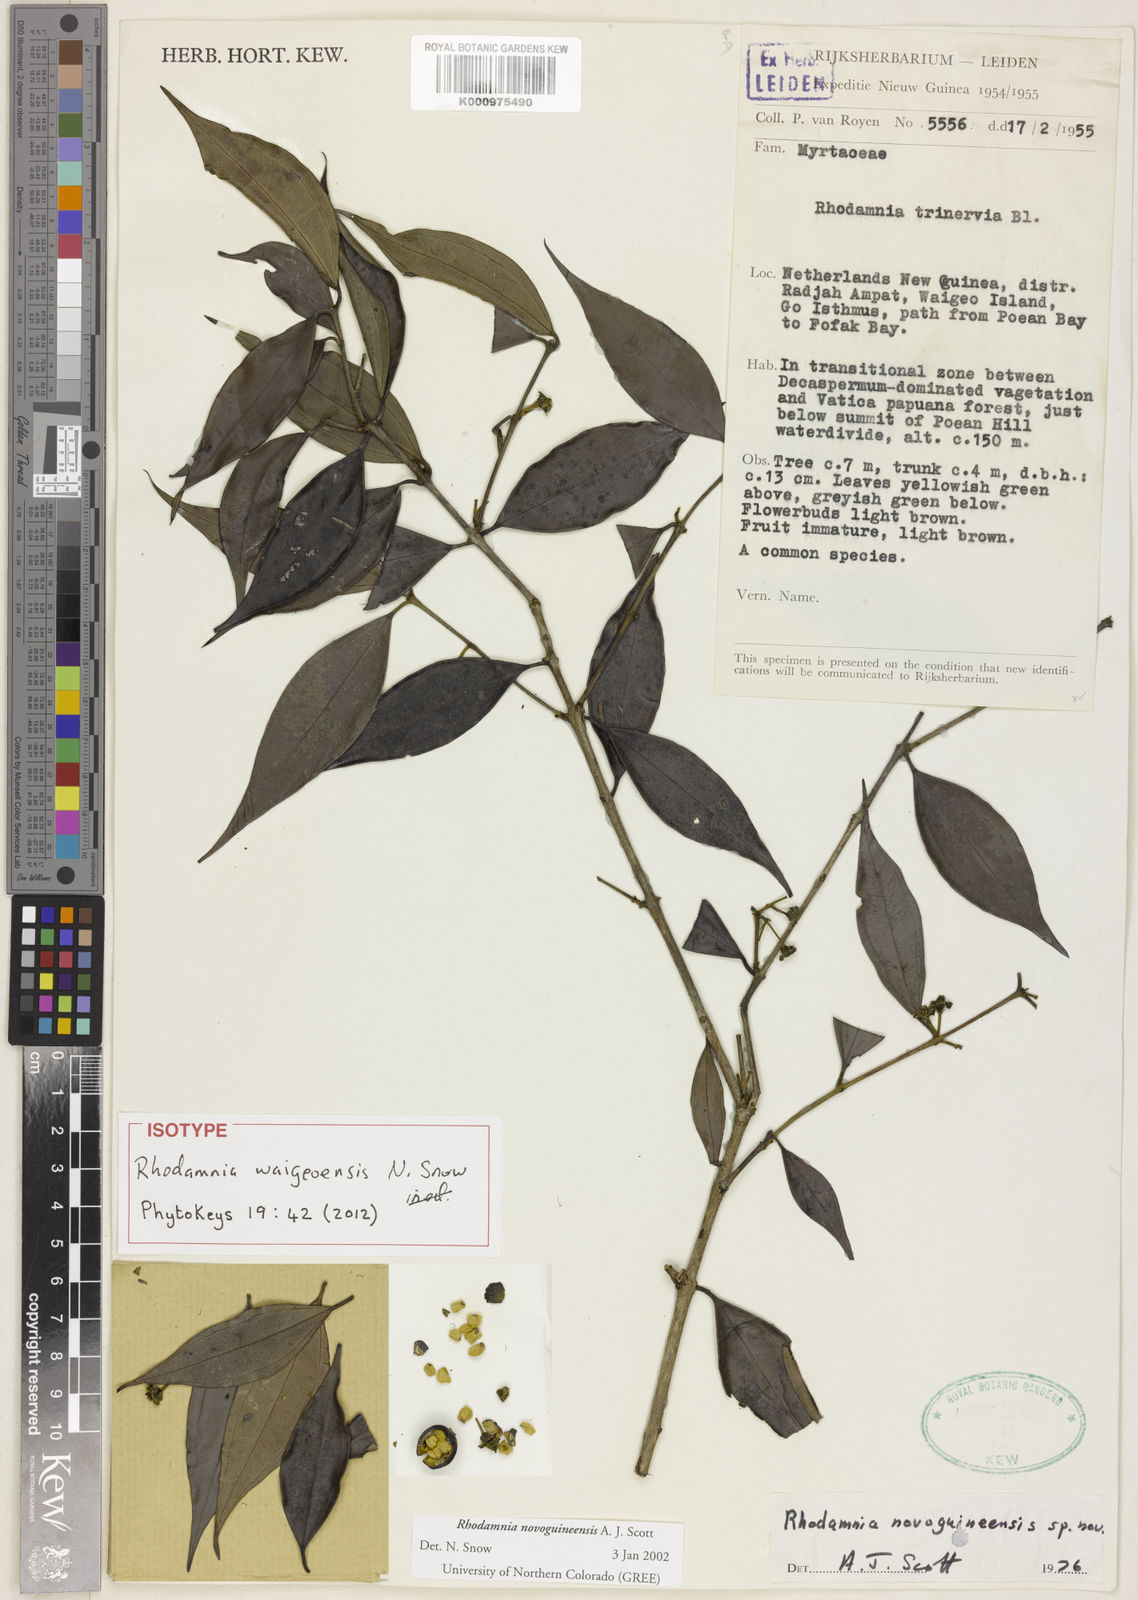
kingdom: Plantae
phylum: Tracheophyta
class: Magnoliopsida
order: Myrtales
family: Myrtaceae
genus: Rhodamnia
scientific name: Rhodamnia waigeoensis
